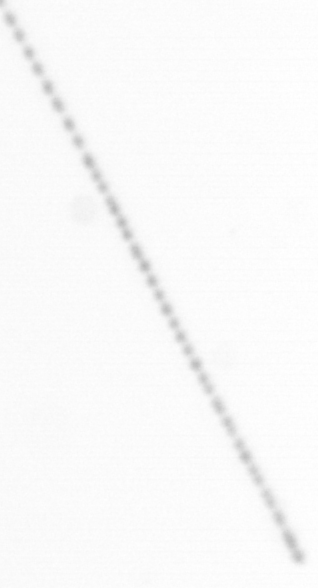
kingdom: Chromista
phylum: Ochrophyta
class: Bacillariophyceae
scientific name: Bacillariophyceae
